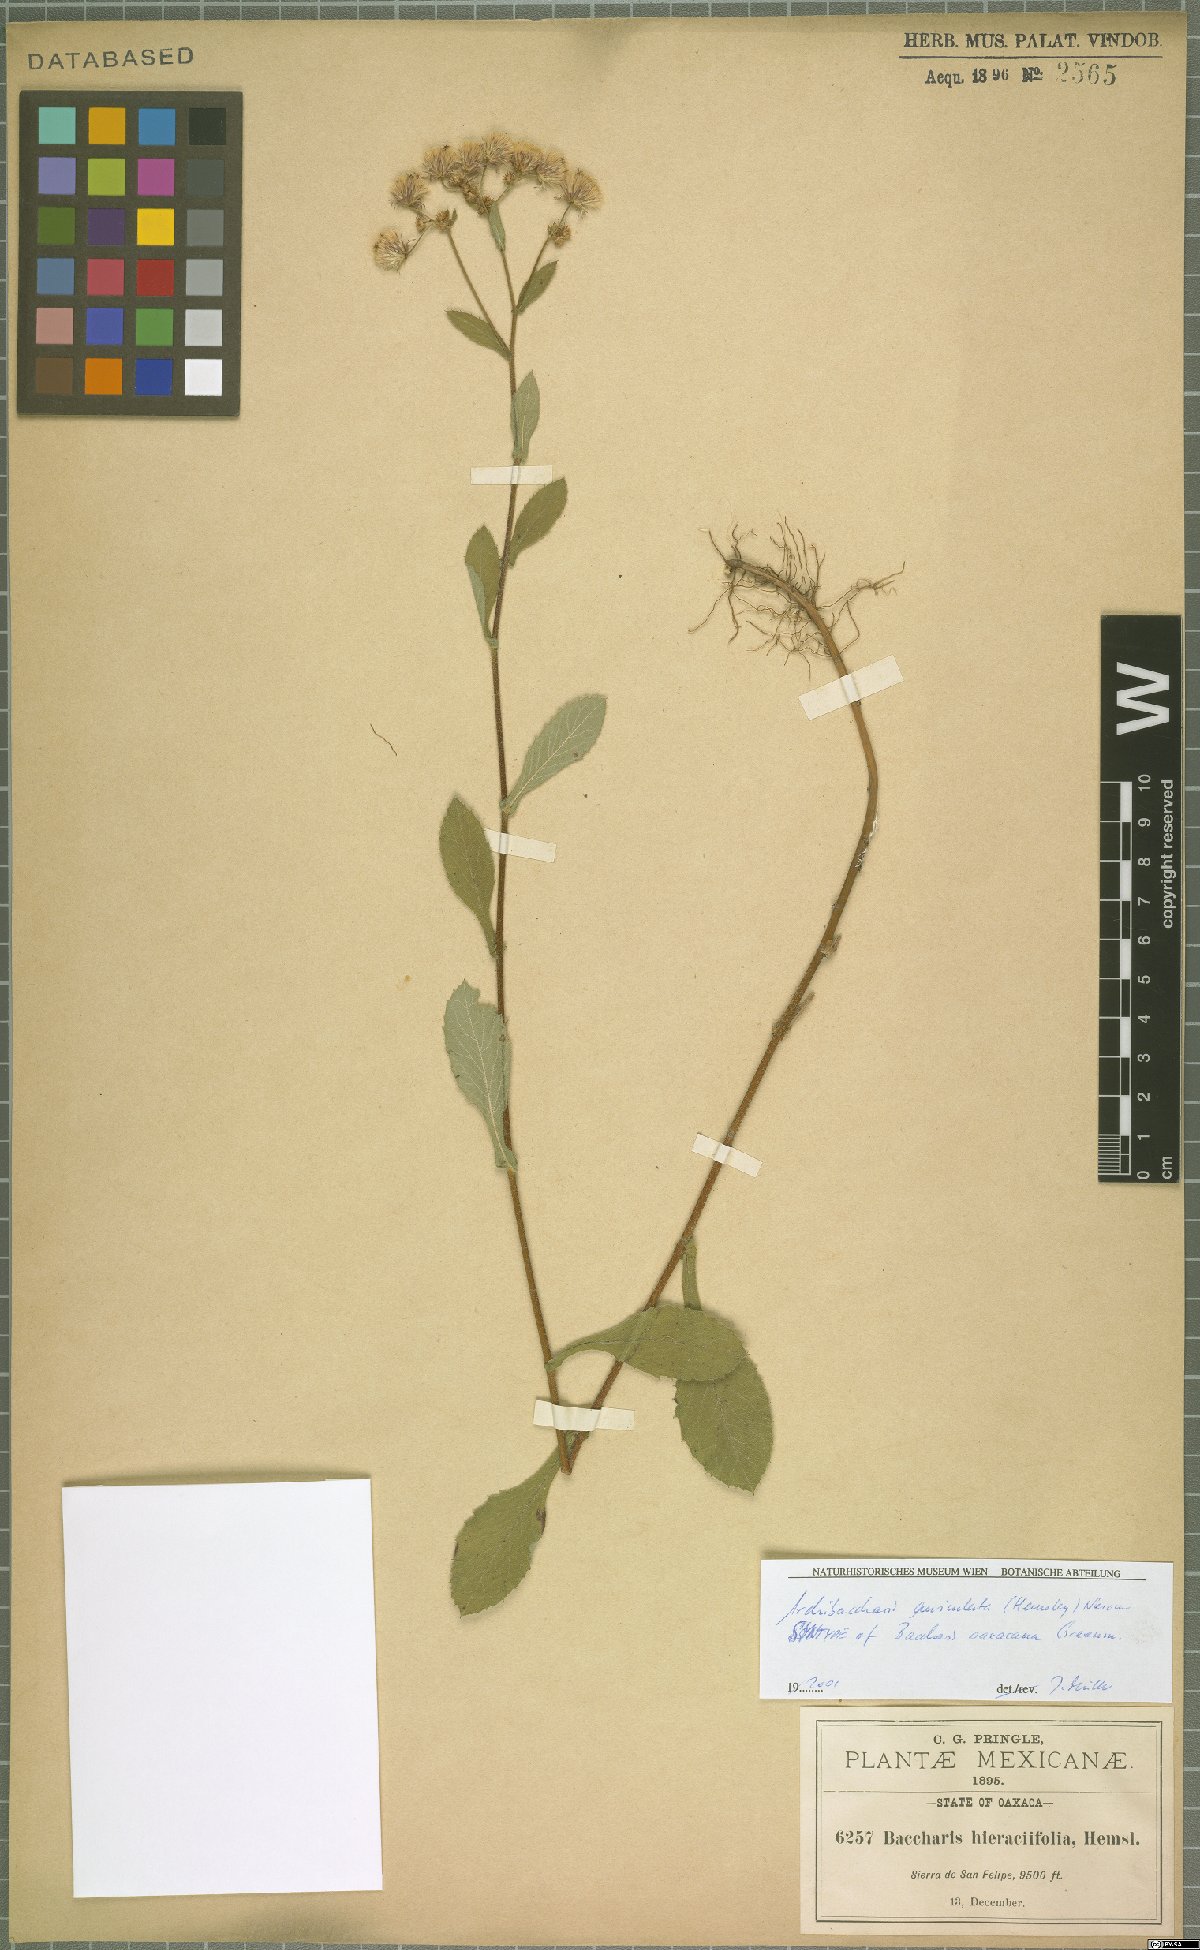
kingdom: Plantae
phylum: Tracheophyta
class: Magnoliopsida
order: Asterales
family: Asteraceae
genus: Archibaccharis
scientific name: Archibaccharis auriculata
